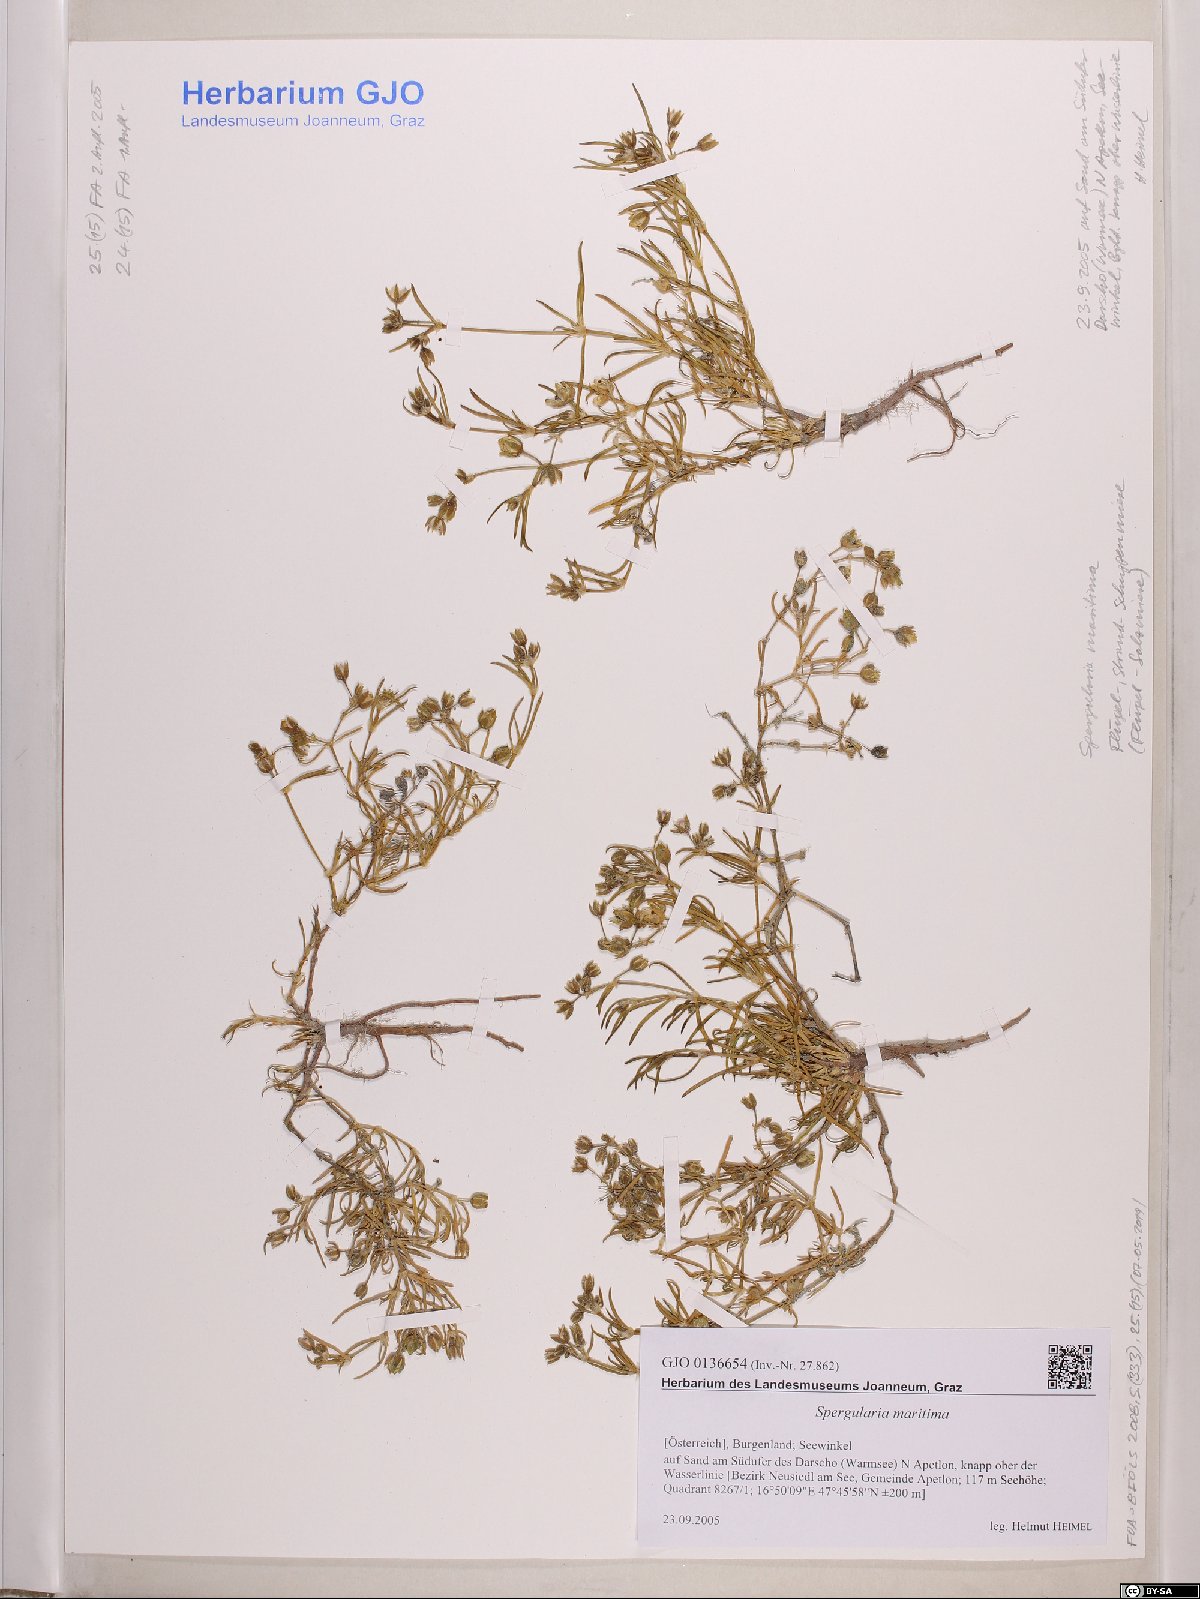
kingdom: Plantae
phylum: Tracheophyta
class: Magnoliopsida
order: Caryophyllales
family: Caryophyllaceae
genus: Spergularia
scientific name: Spergularia media
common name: Greater sea-spurrey
